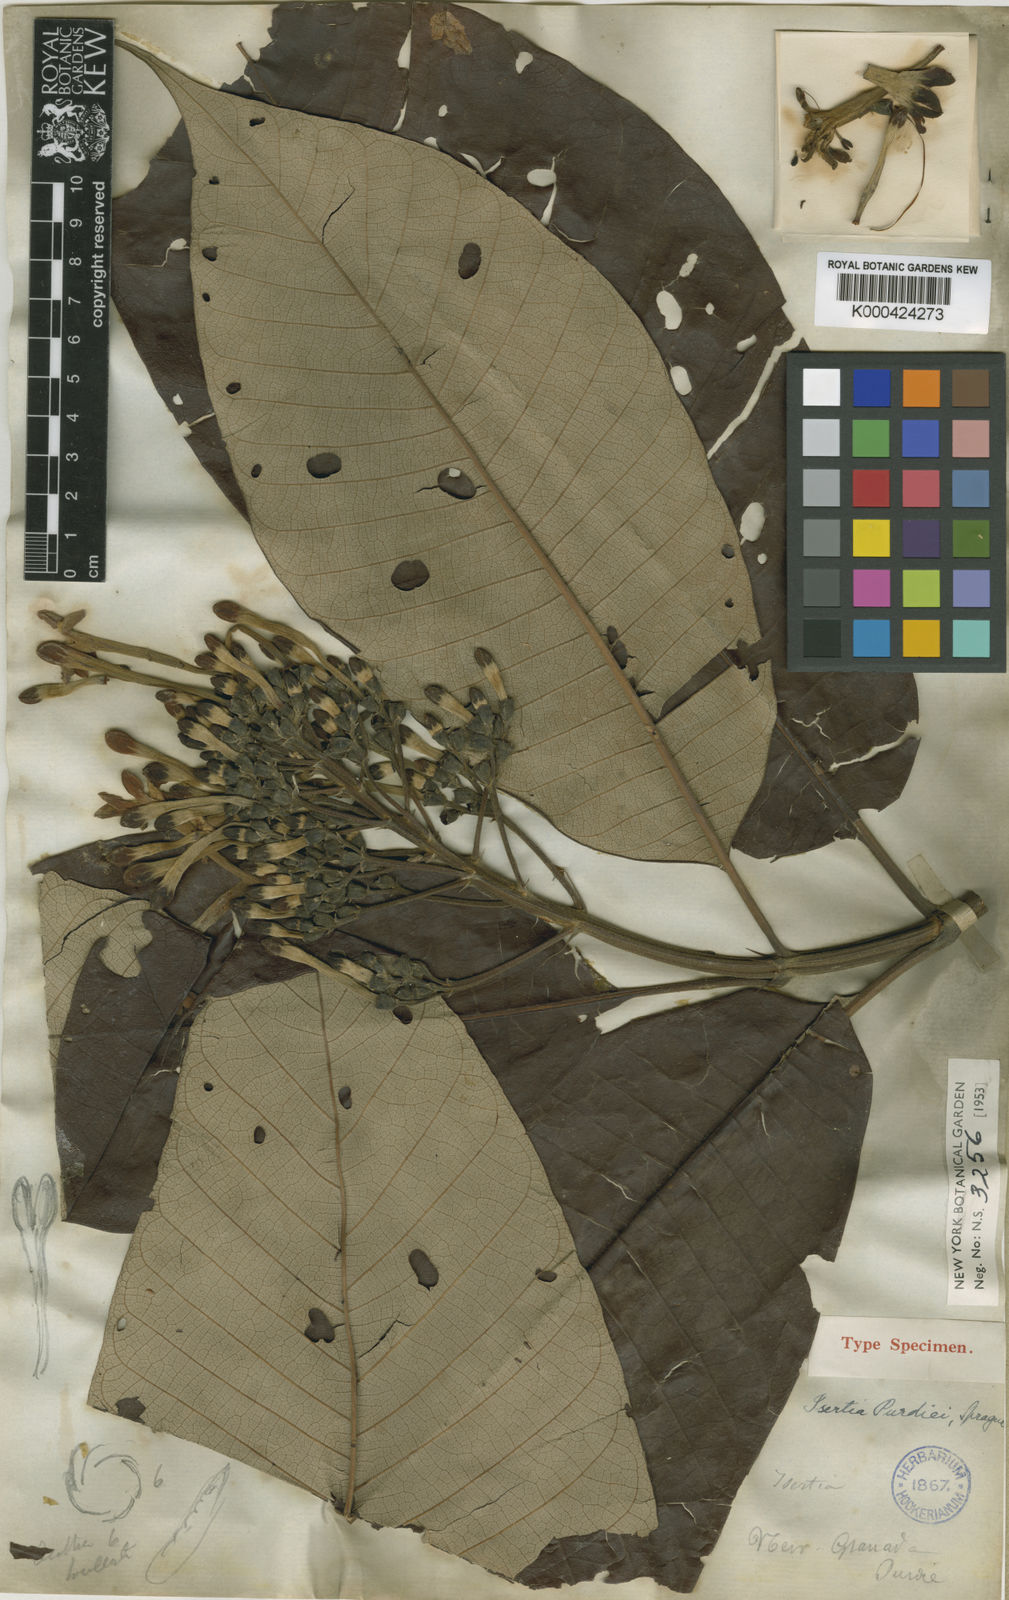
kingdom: Plantae
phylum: Tracheophyta
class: Magnoliopsida
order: Gentianales
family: Rubiaceae
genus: Isertia
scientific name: Isertia laevis
